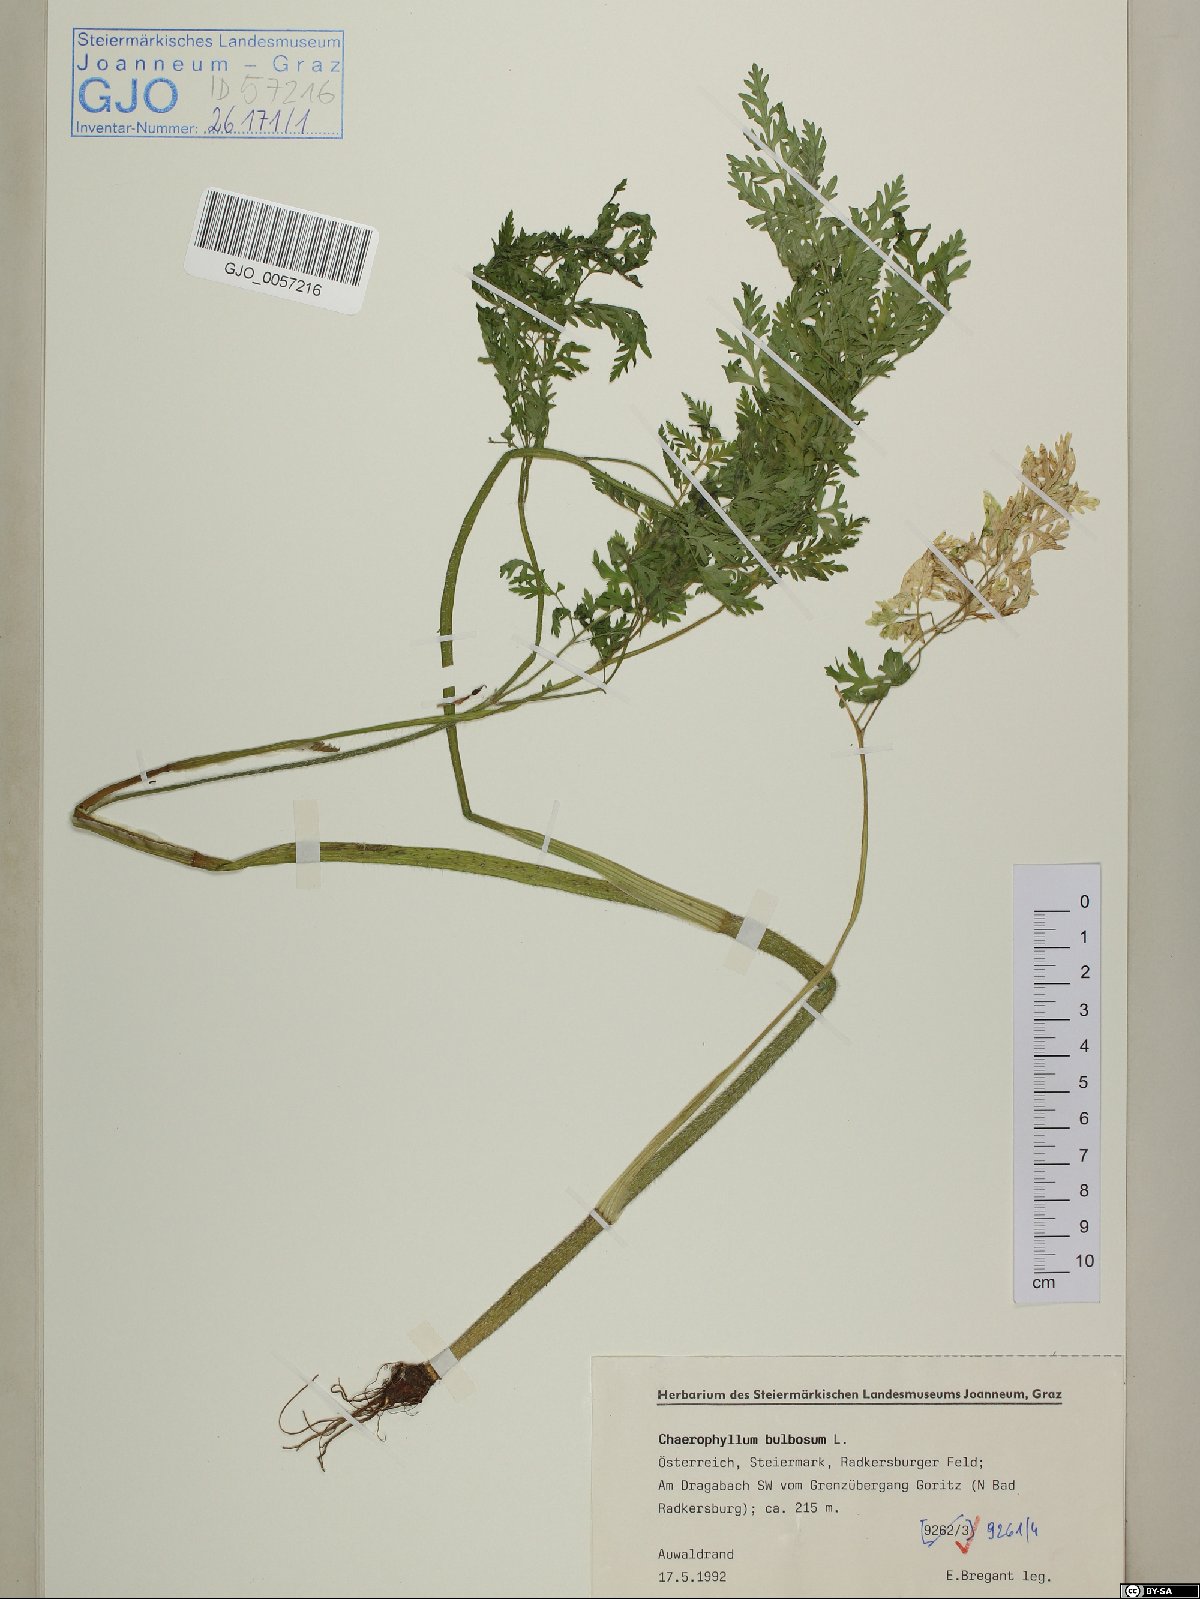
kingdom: Plantae
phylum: Tracheophyta
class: Magnoliopsida
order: Apiales
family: Apiaceae
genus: Chaerophyllum
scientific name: Chaerophyllum bulbosum
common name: Bulbous chervil
